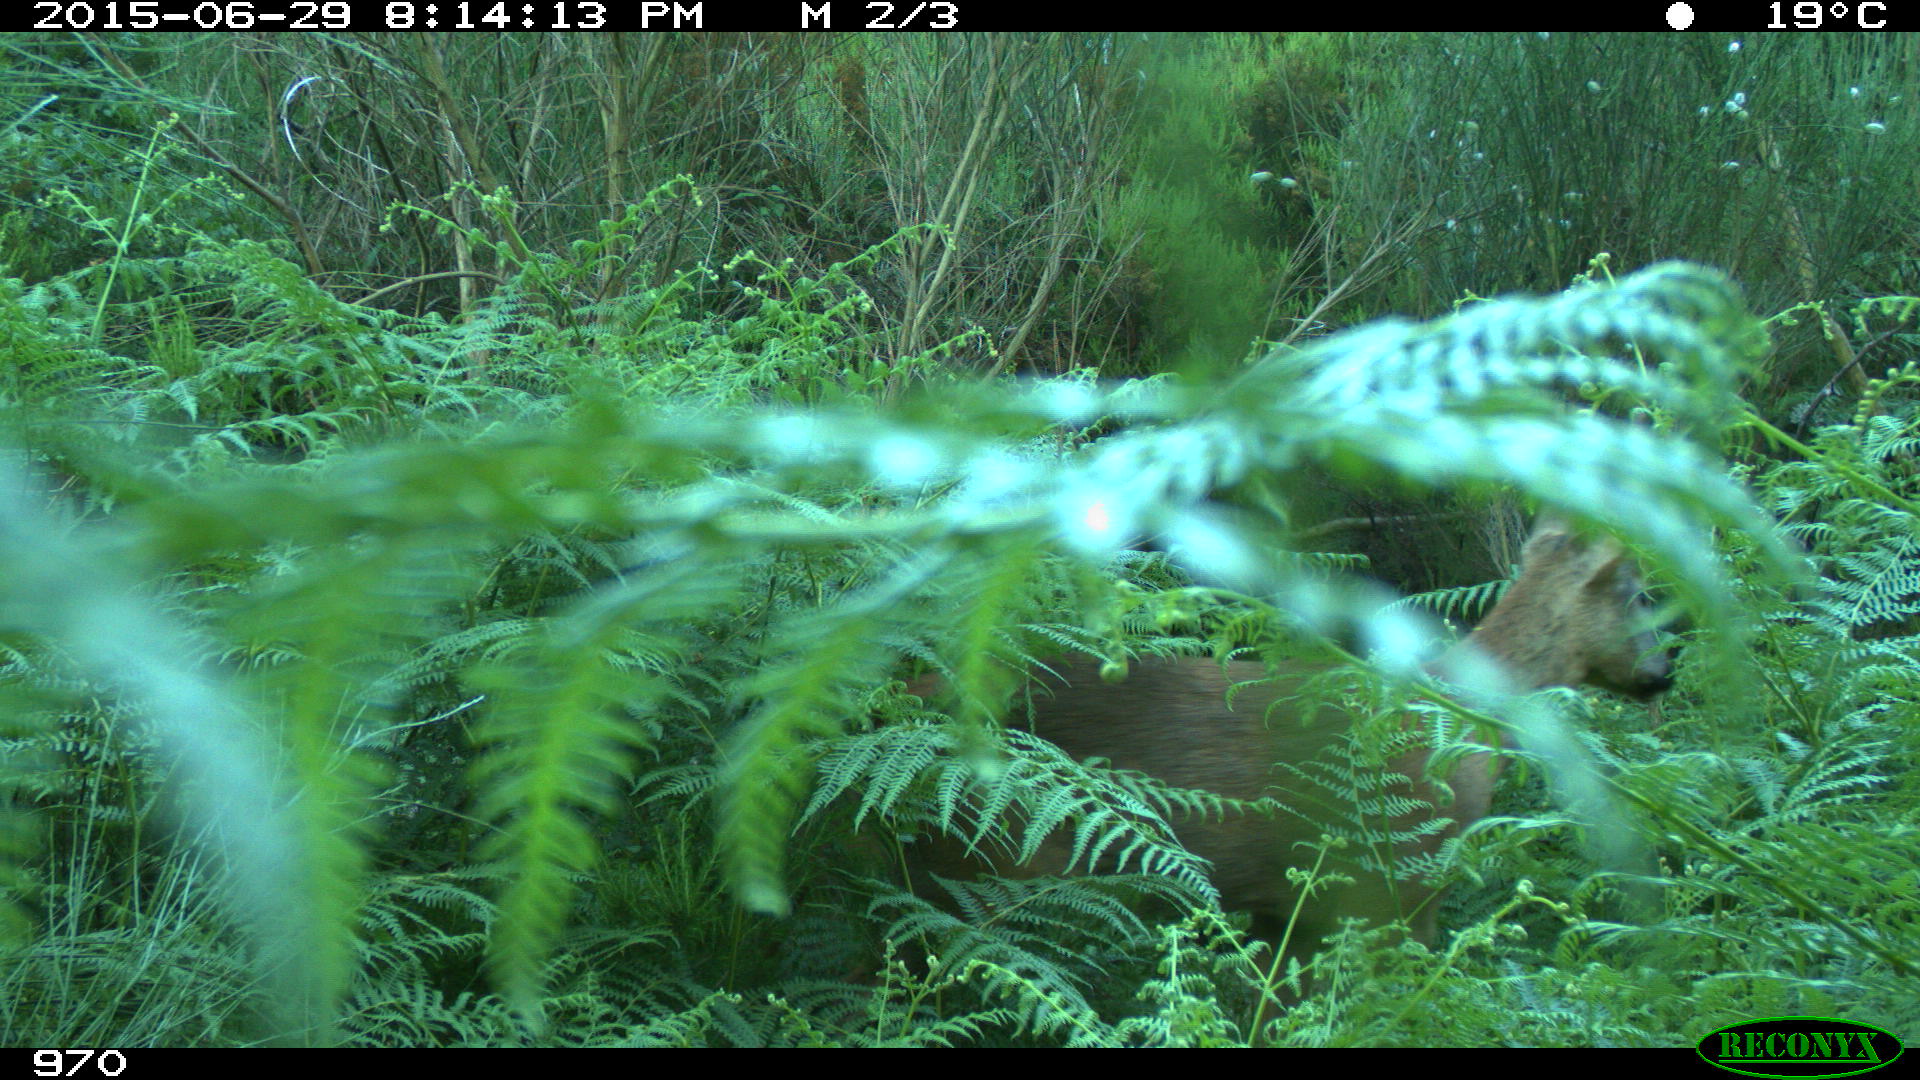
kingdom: Animalia
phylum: Chordata
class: Mammalia
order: Artiodactyla
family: Cervidae
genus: Capreolus
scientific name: Capreolus capreolus
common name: Western roe deer
